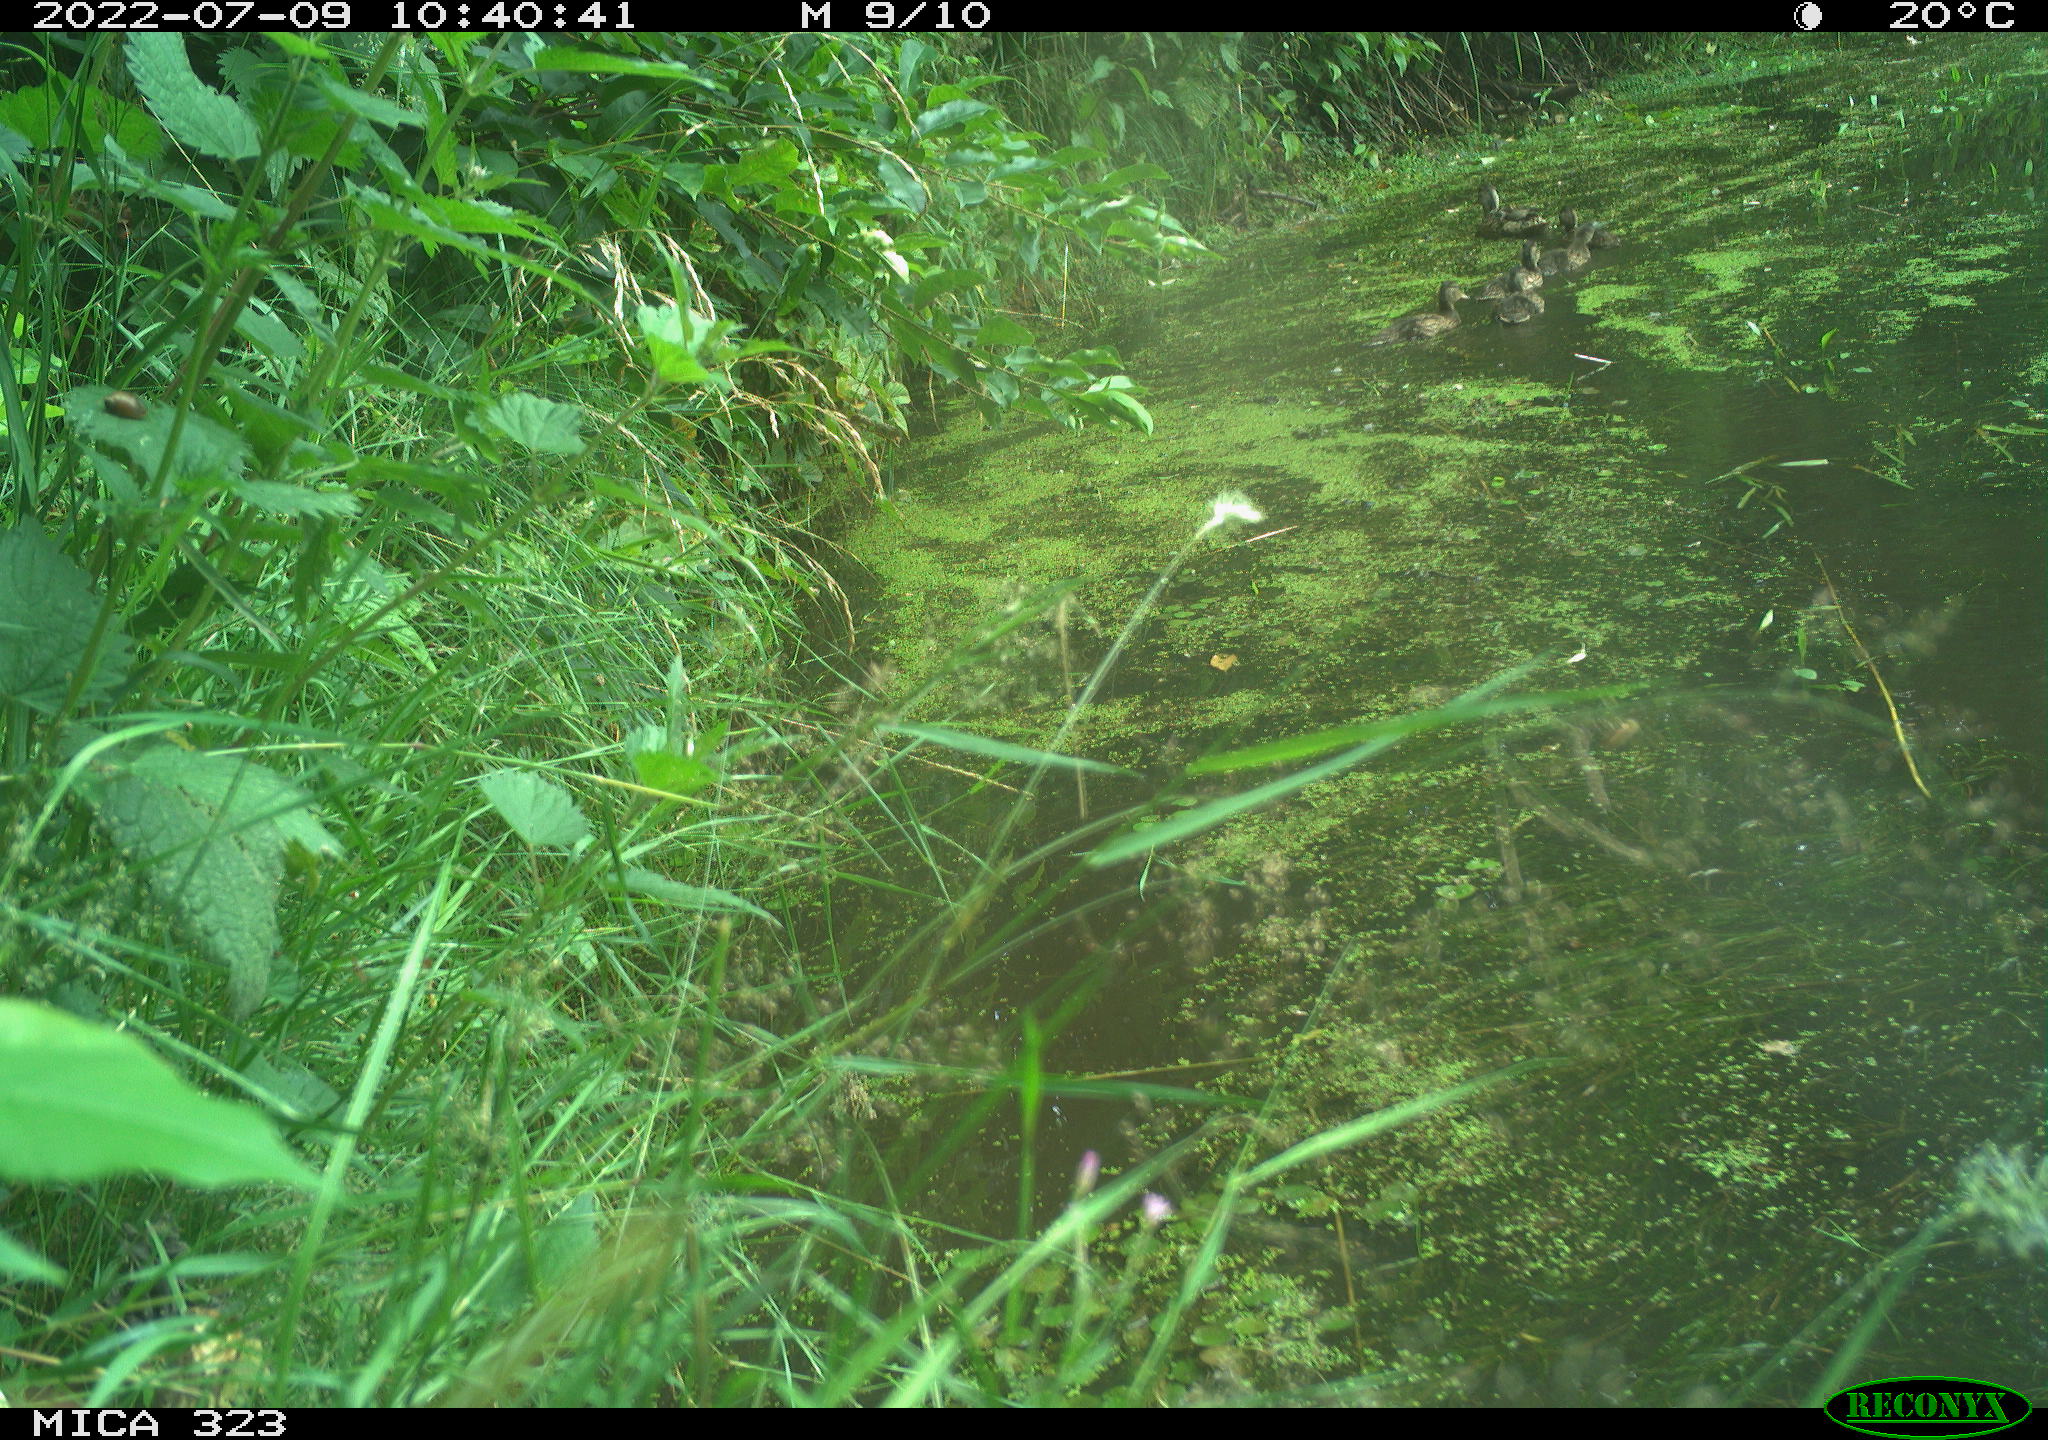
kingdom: Animalia
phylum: Chordata
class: Aves
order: Anseriformes
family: Anatidae
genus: Anas
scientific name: Anas platyrhynchos
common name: Mallard
